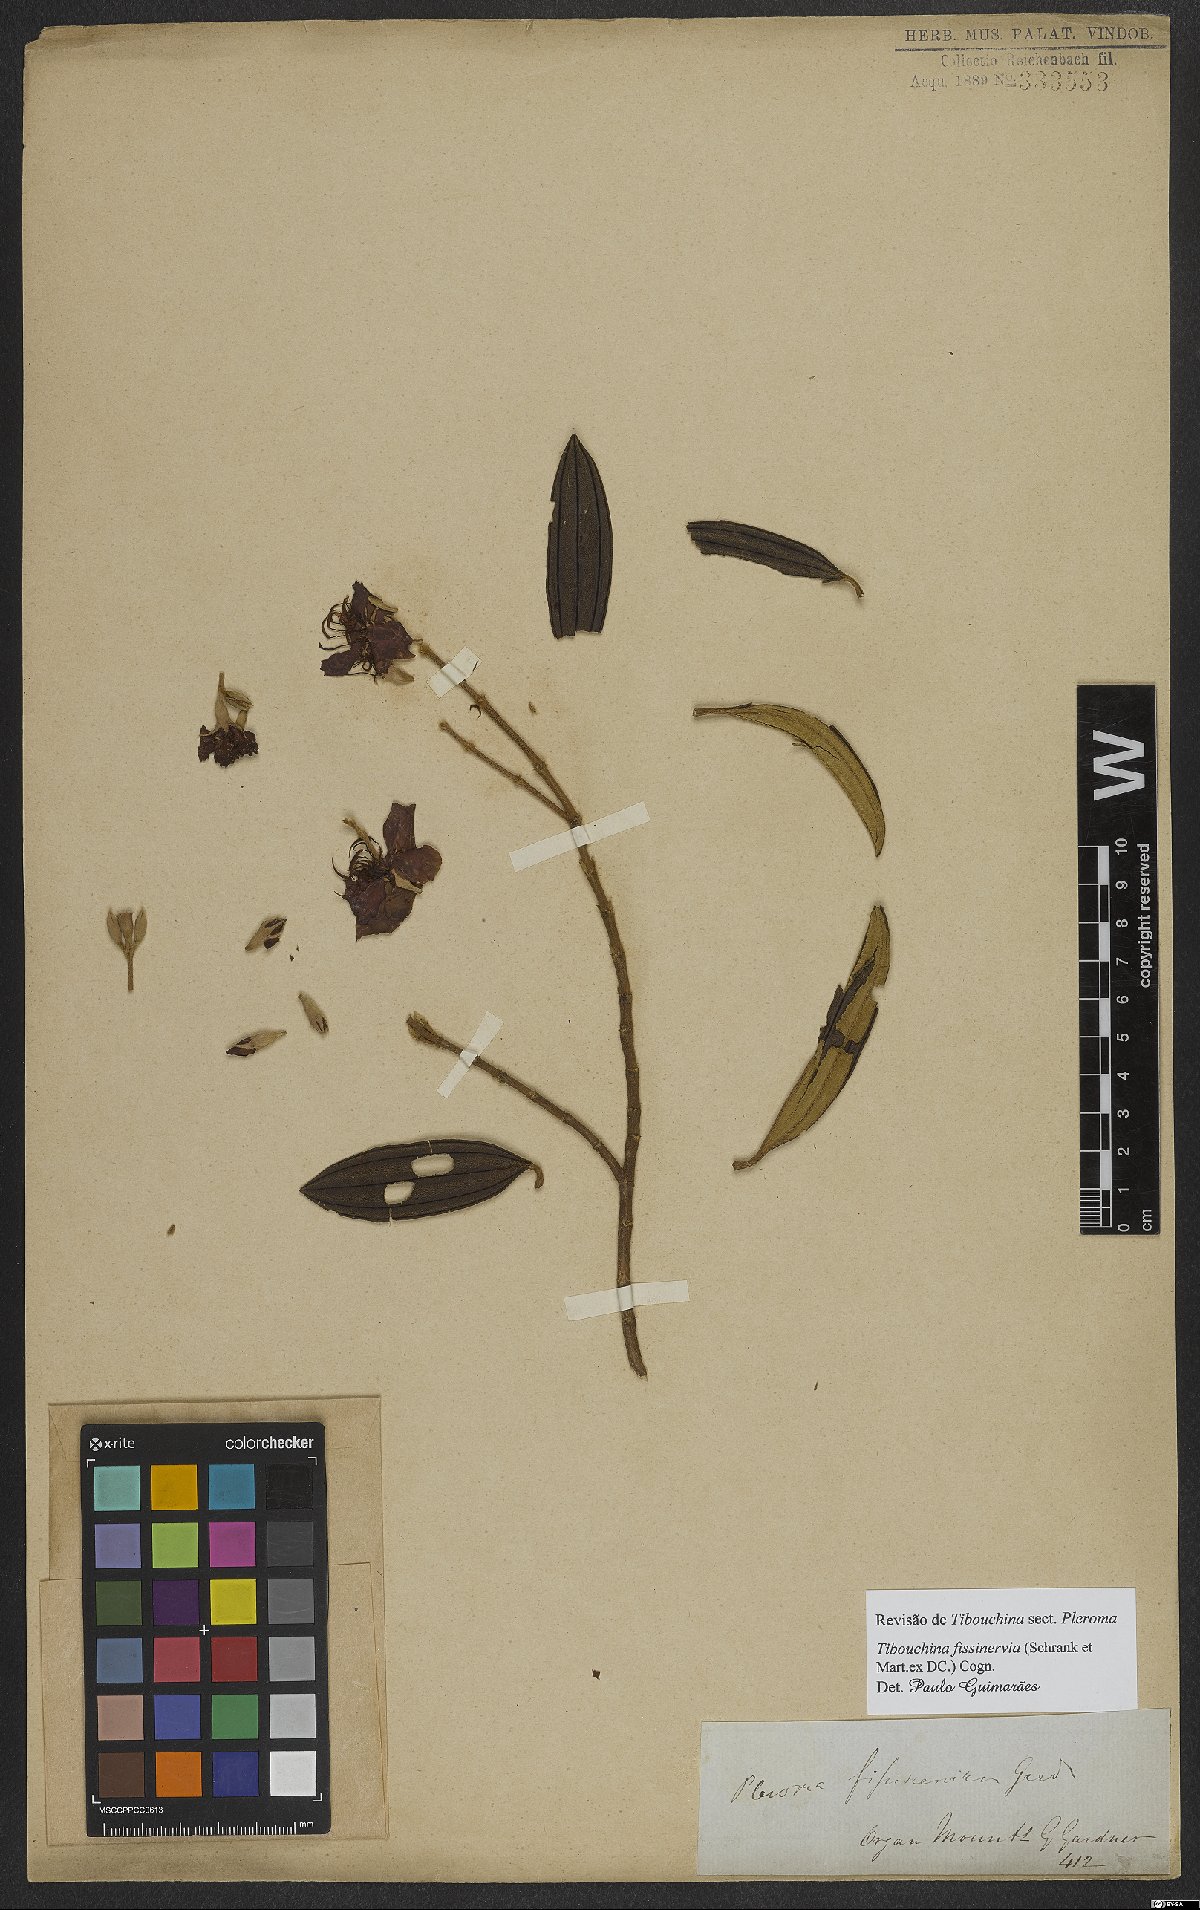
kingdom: Plantae
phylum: Tracheophyta
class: Magnoliopsida
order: Myrtales
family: Melastomataceae
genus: Pleroma
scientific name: Pleroma fissinervium
